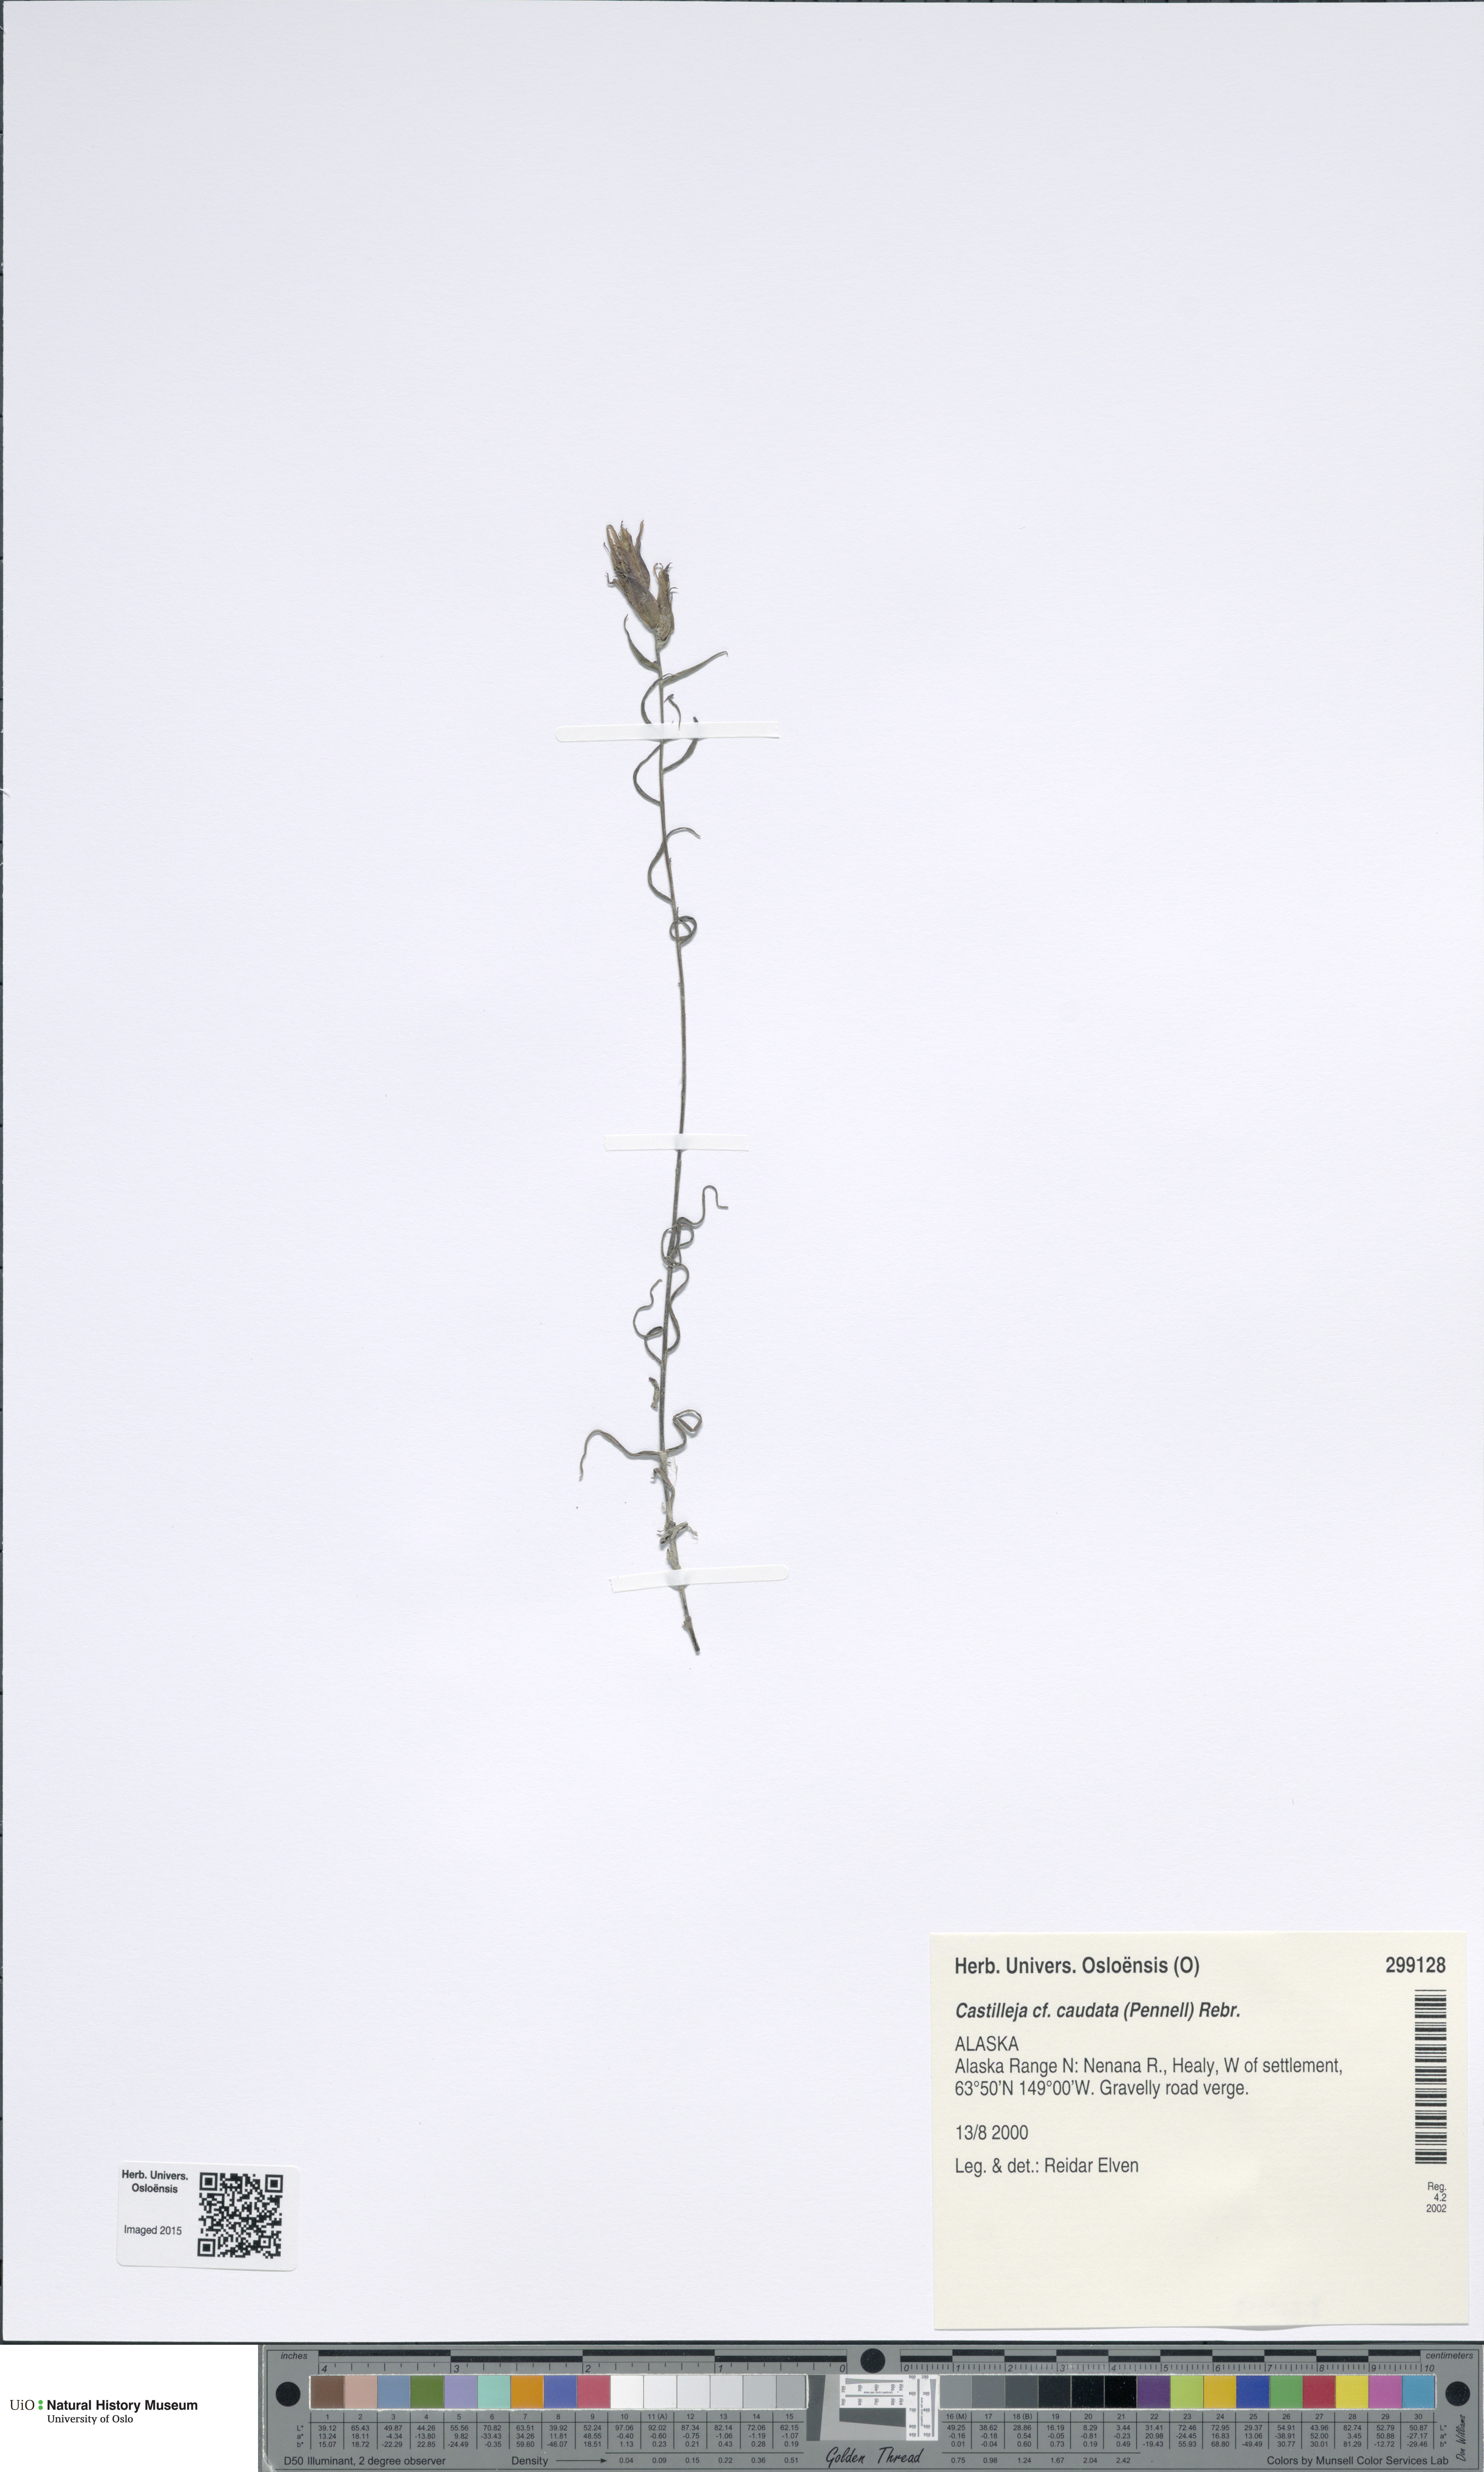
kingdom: Plantae
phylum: Tracheophyta
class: Magnoliopsida
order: Lamiales
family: Orobanchaceae
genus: Castilleja
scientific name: Castilleja pallida
